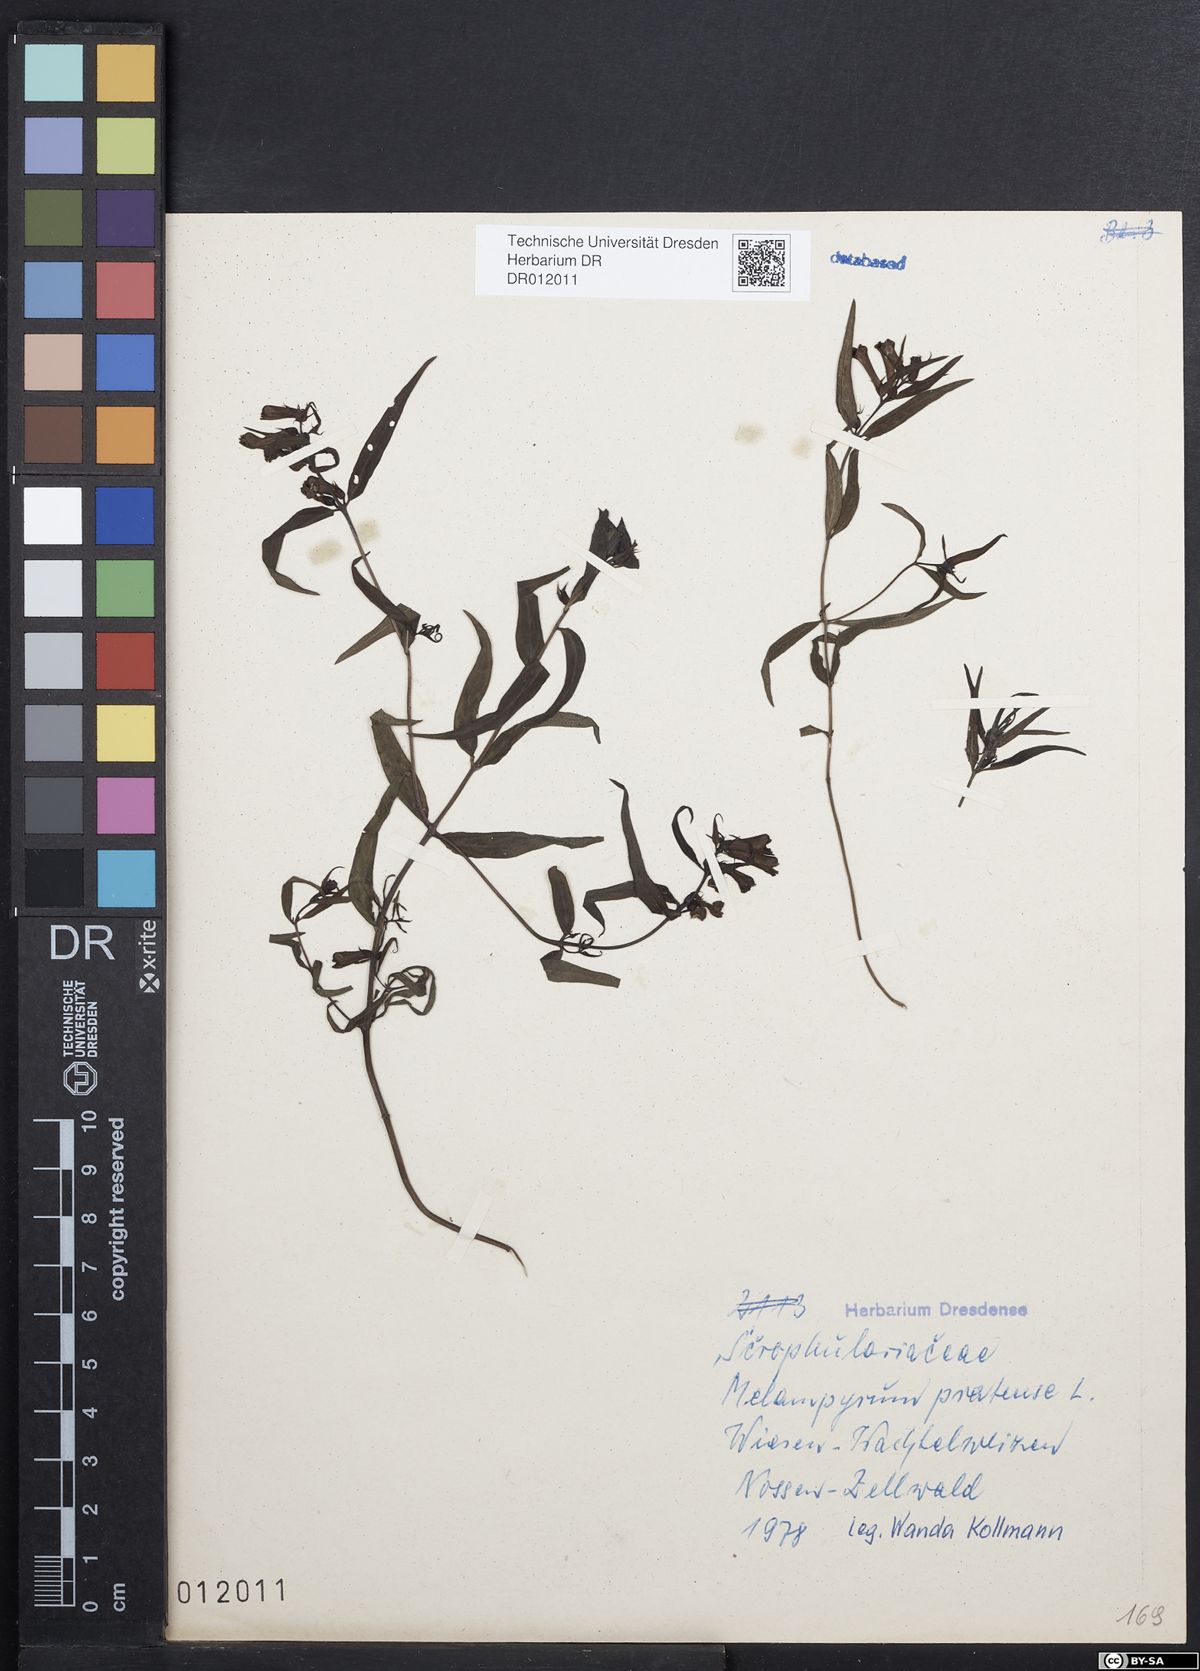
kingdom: Plantae
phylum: Tracheophyta
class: Magnoliopsida
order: Lamiales
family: Orobanchaceae
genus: Melampyrum
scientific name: Melampyrum pratense
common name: Common cow-wheat
